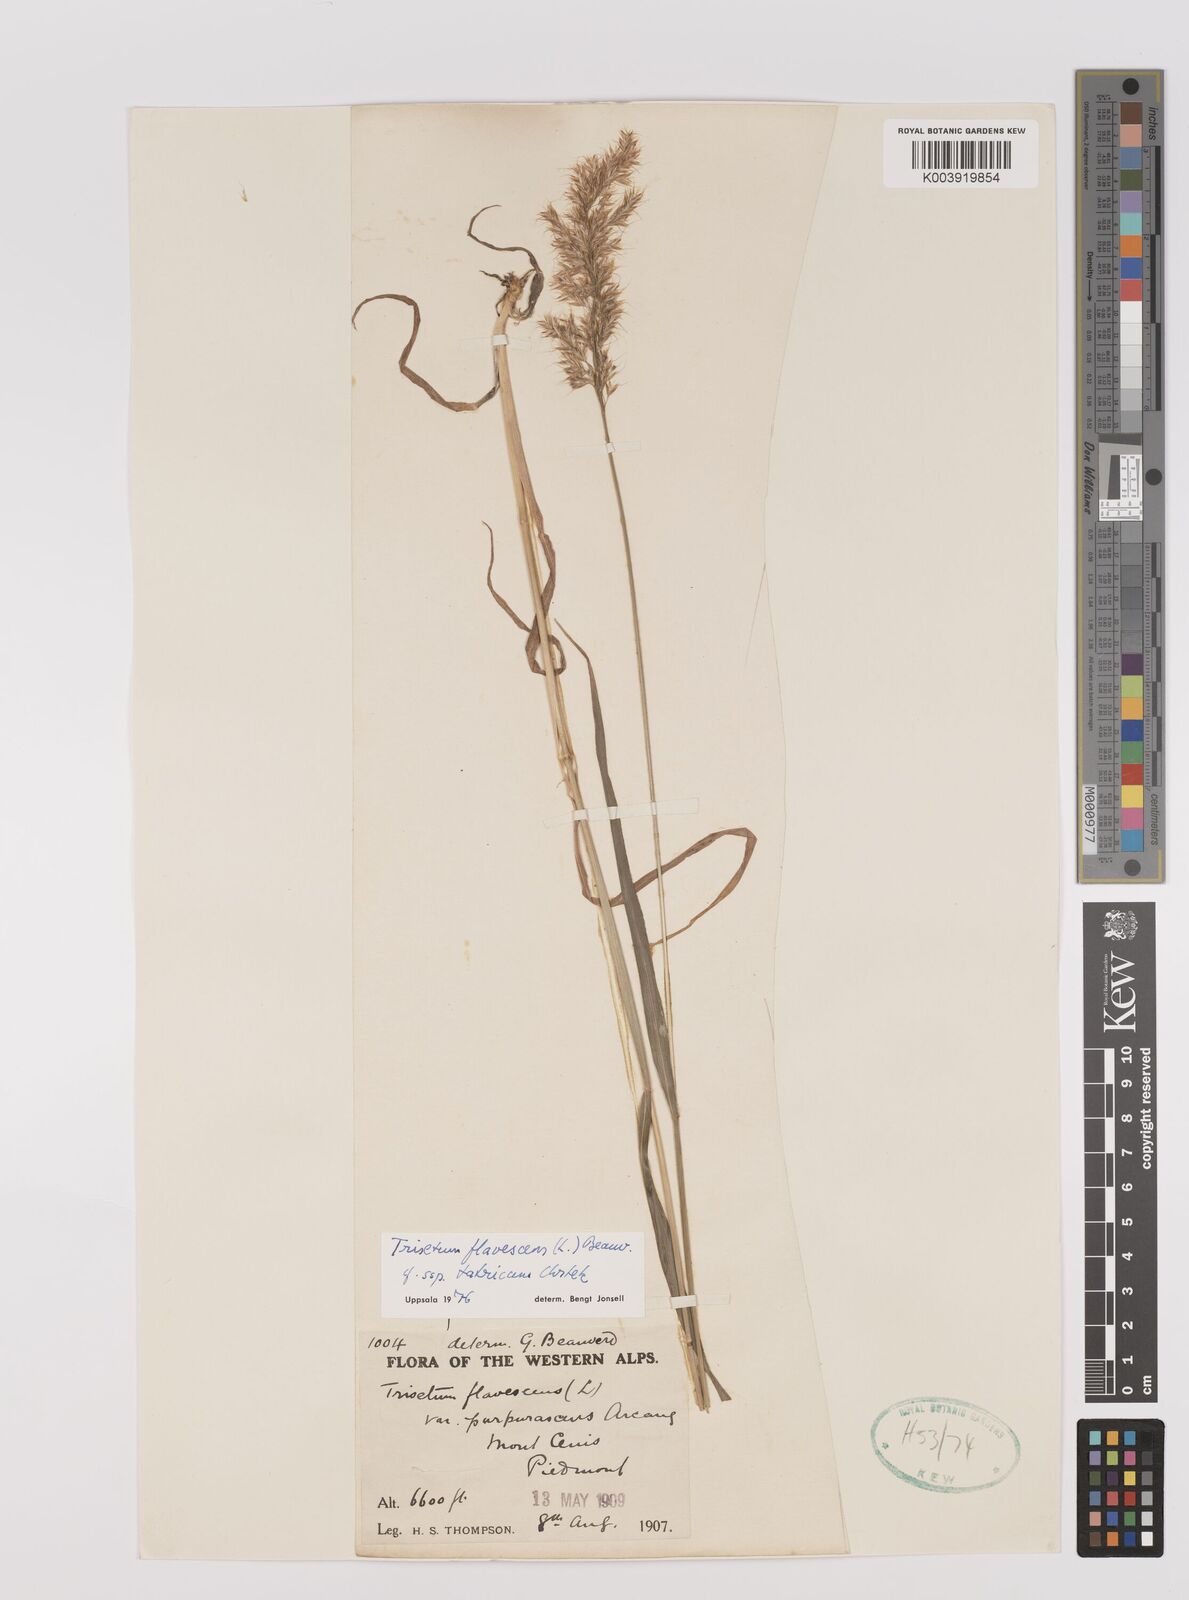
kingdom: Plantae
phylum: Tracheophyta
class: Liliopsida
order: Poales
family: Poaceae
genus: Trisetum
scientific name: Trisetum flavescens
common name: Yellow oat-grass
